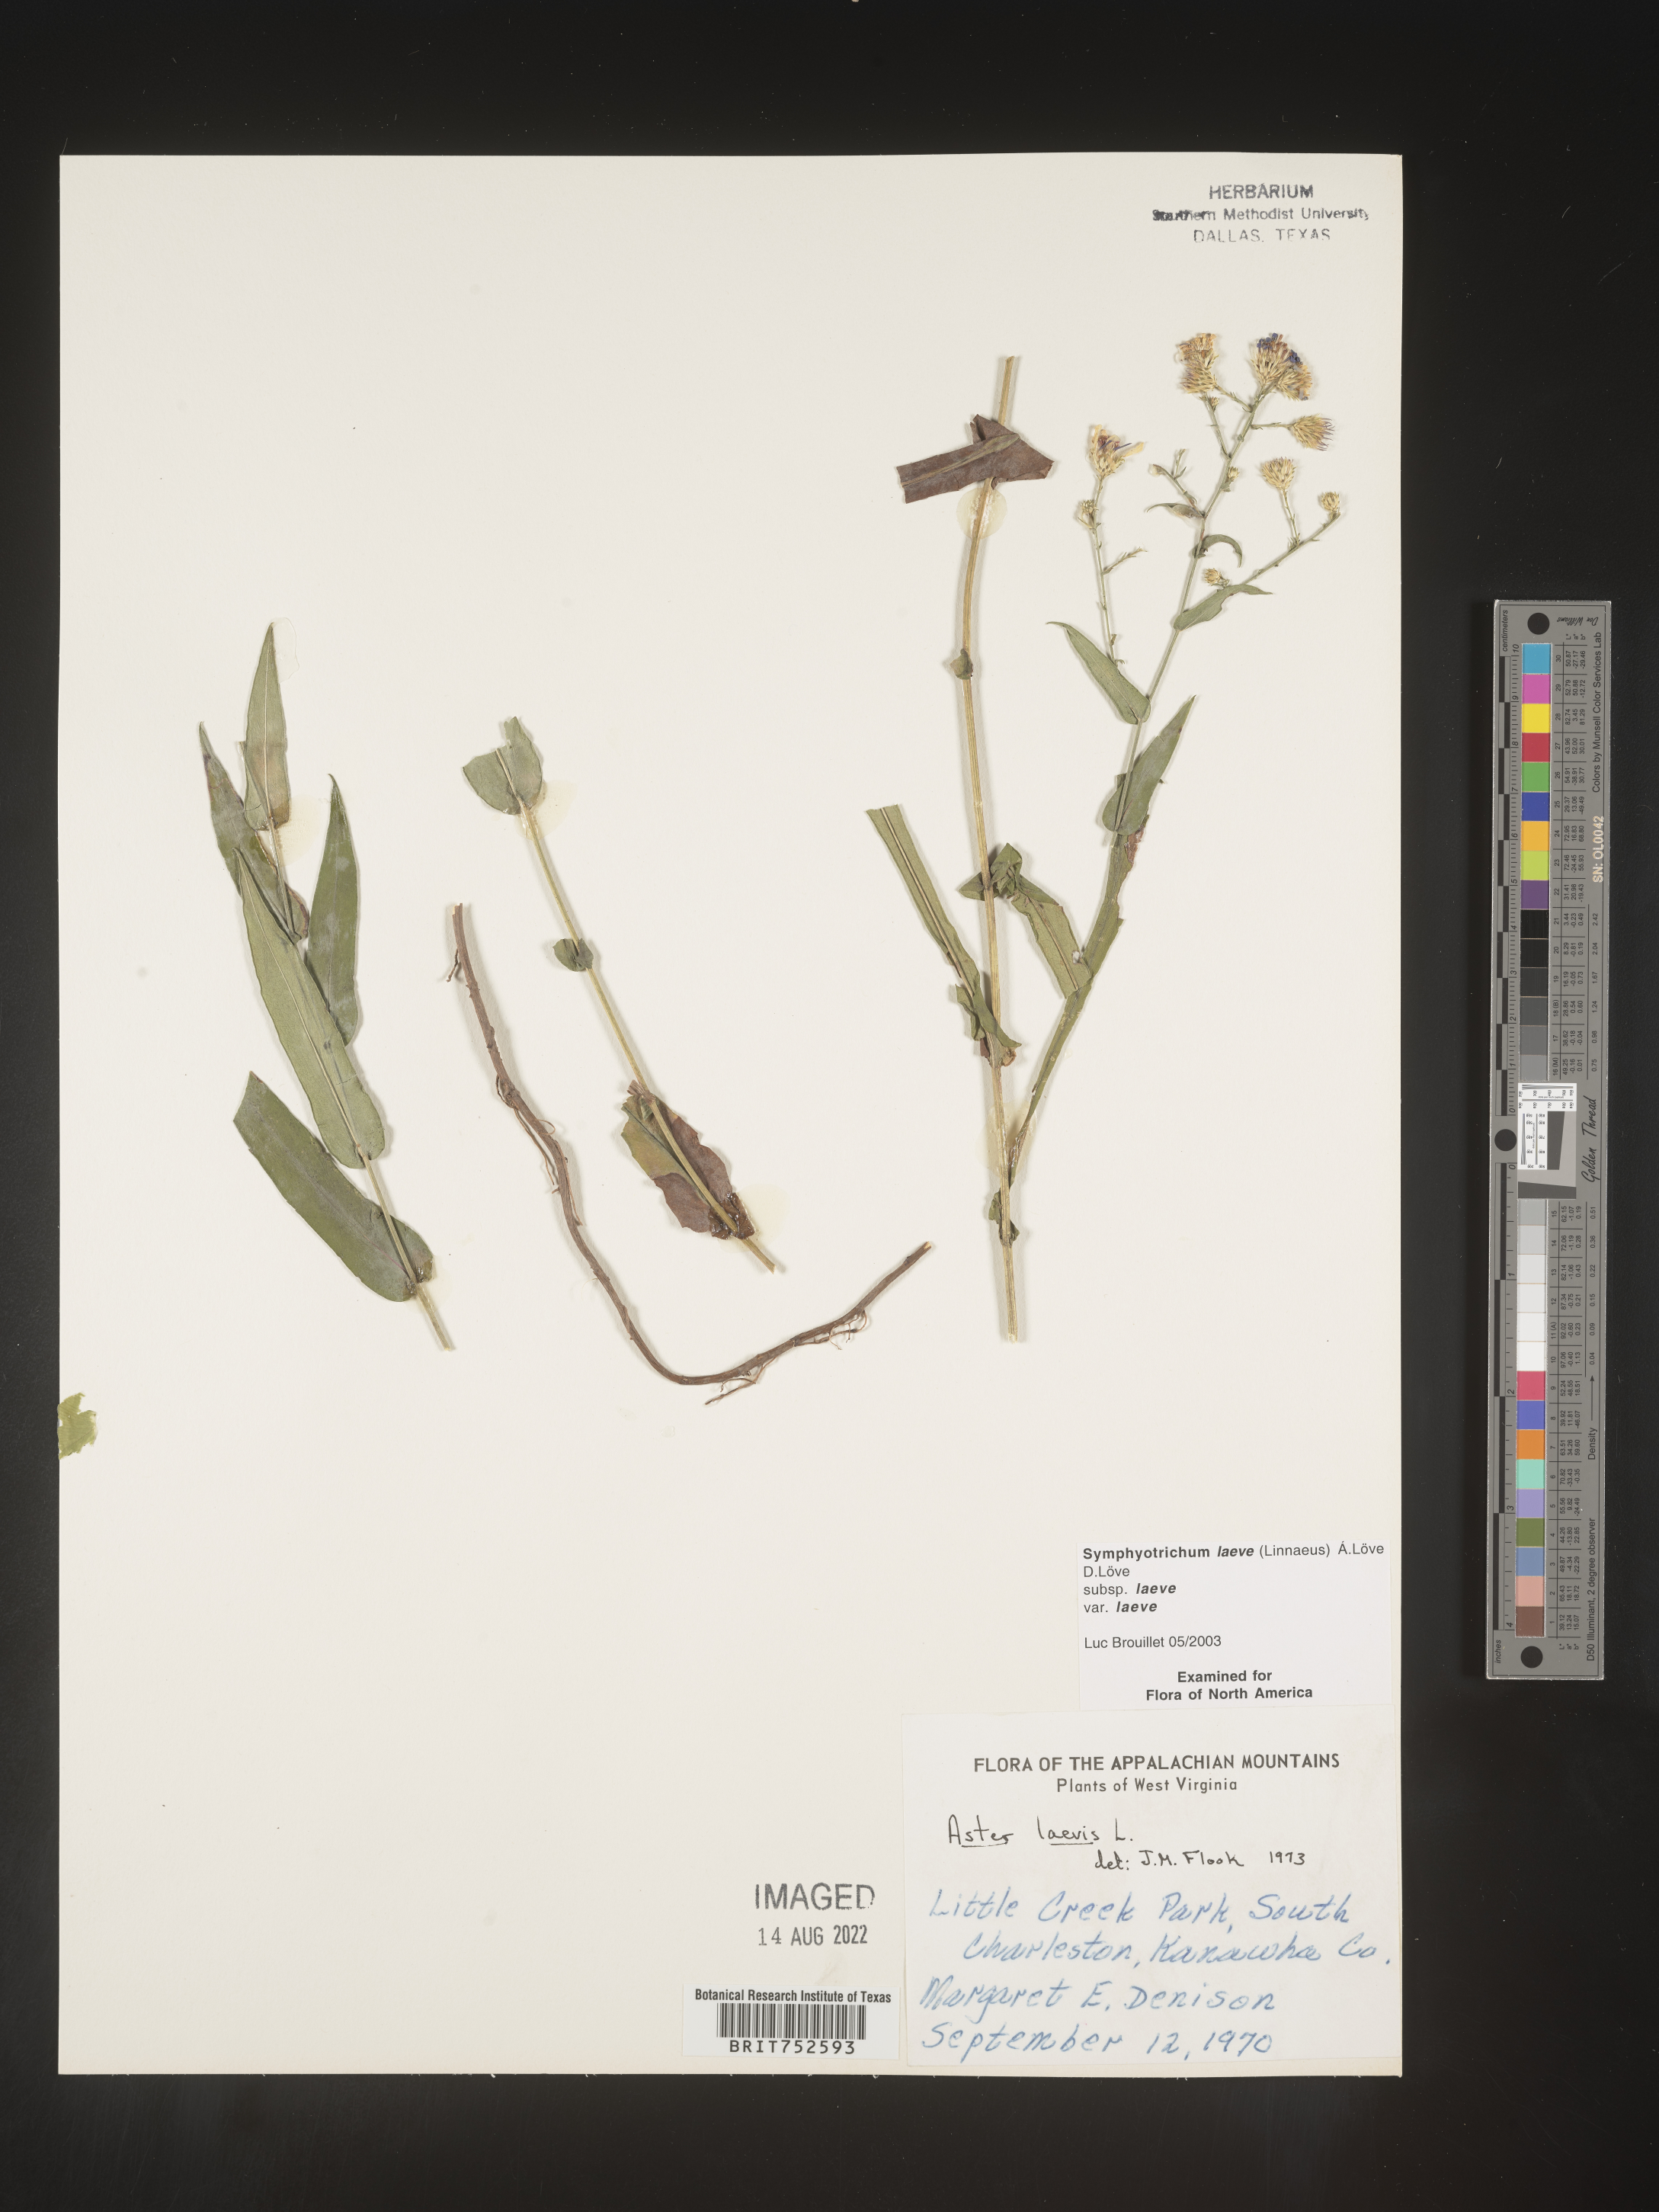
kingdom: Plantae
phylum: Tracheophyta
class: Magnoliopsida
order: Asterales
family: Asteraceae
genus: Symphyotrichum
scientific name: Symphyotrichum laeve
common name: Glaucous aster
